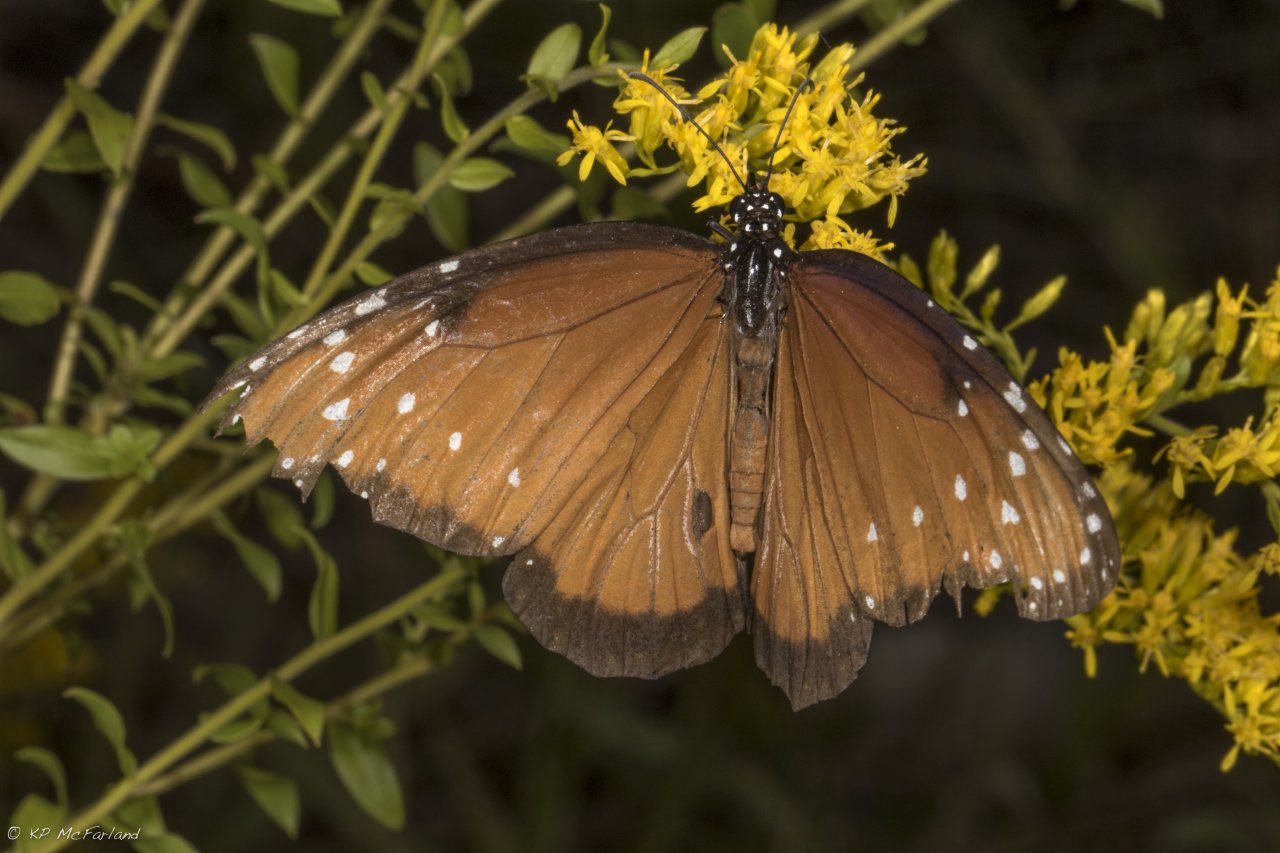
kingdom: Animalia
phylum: Arthropoda
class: Insecta
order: Lepidoptera
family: Nymphalidae
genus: Danaus
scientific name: Danaus gilippus
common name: Queen
